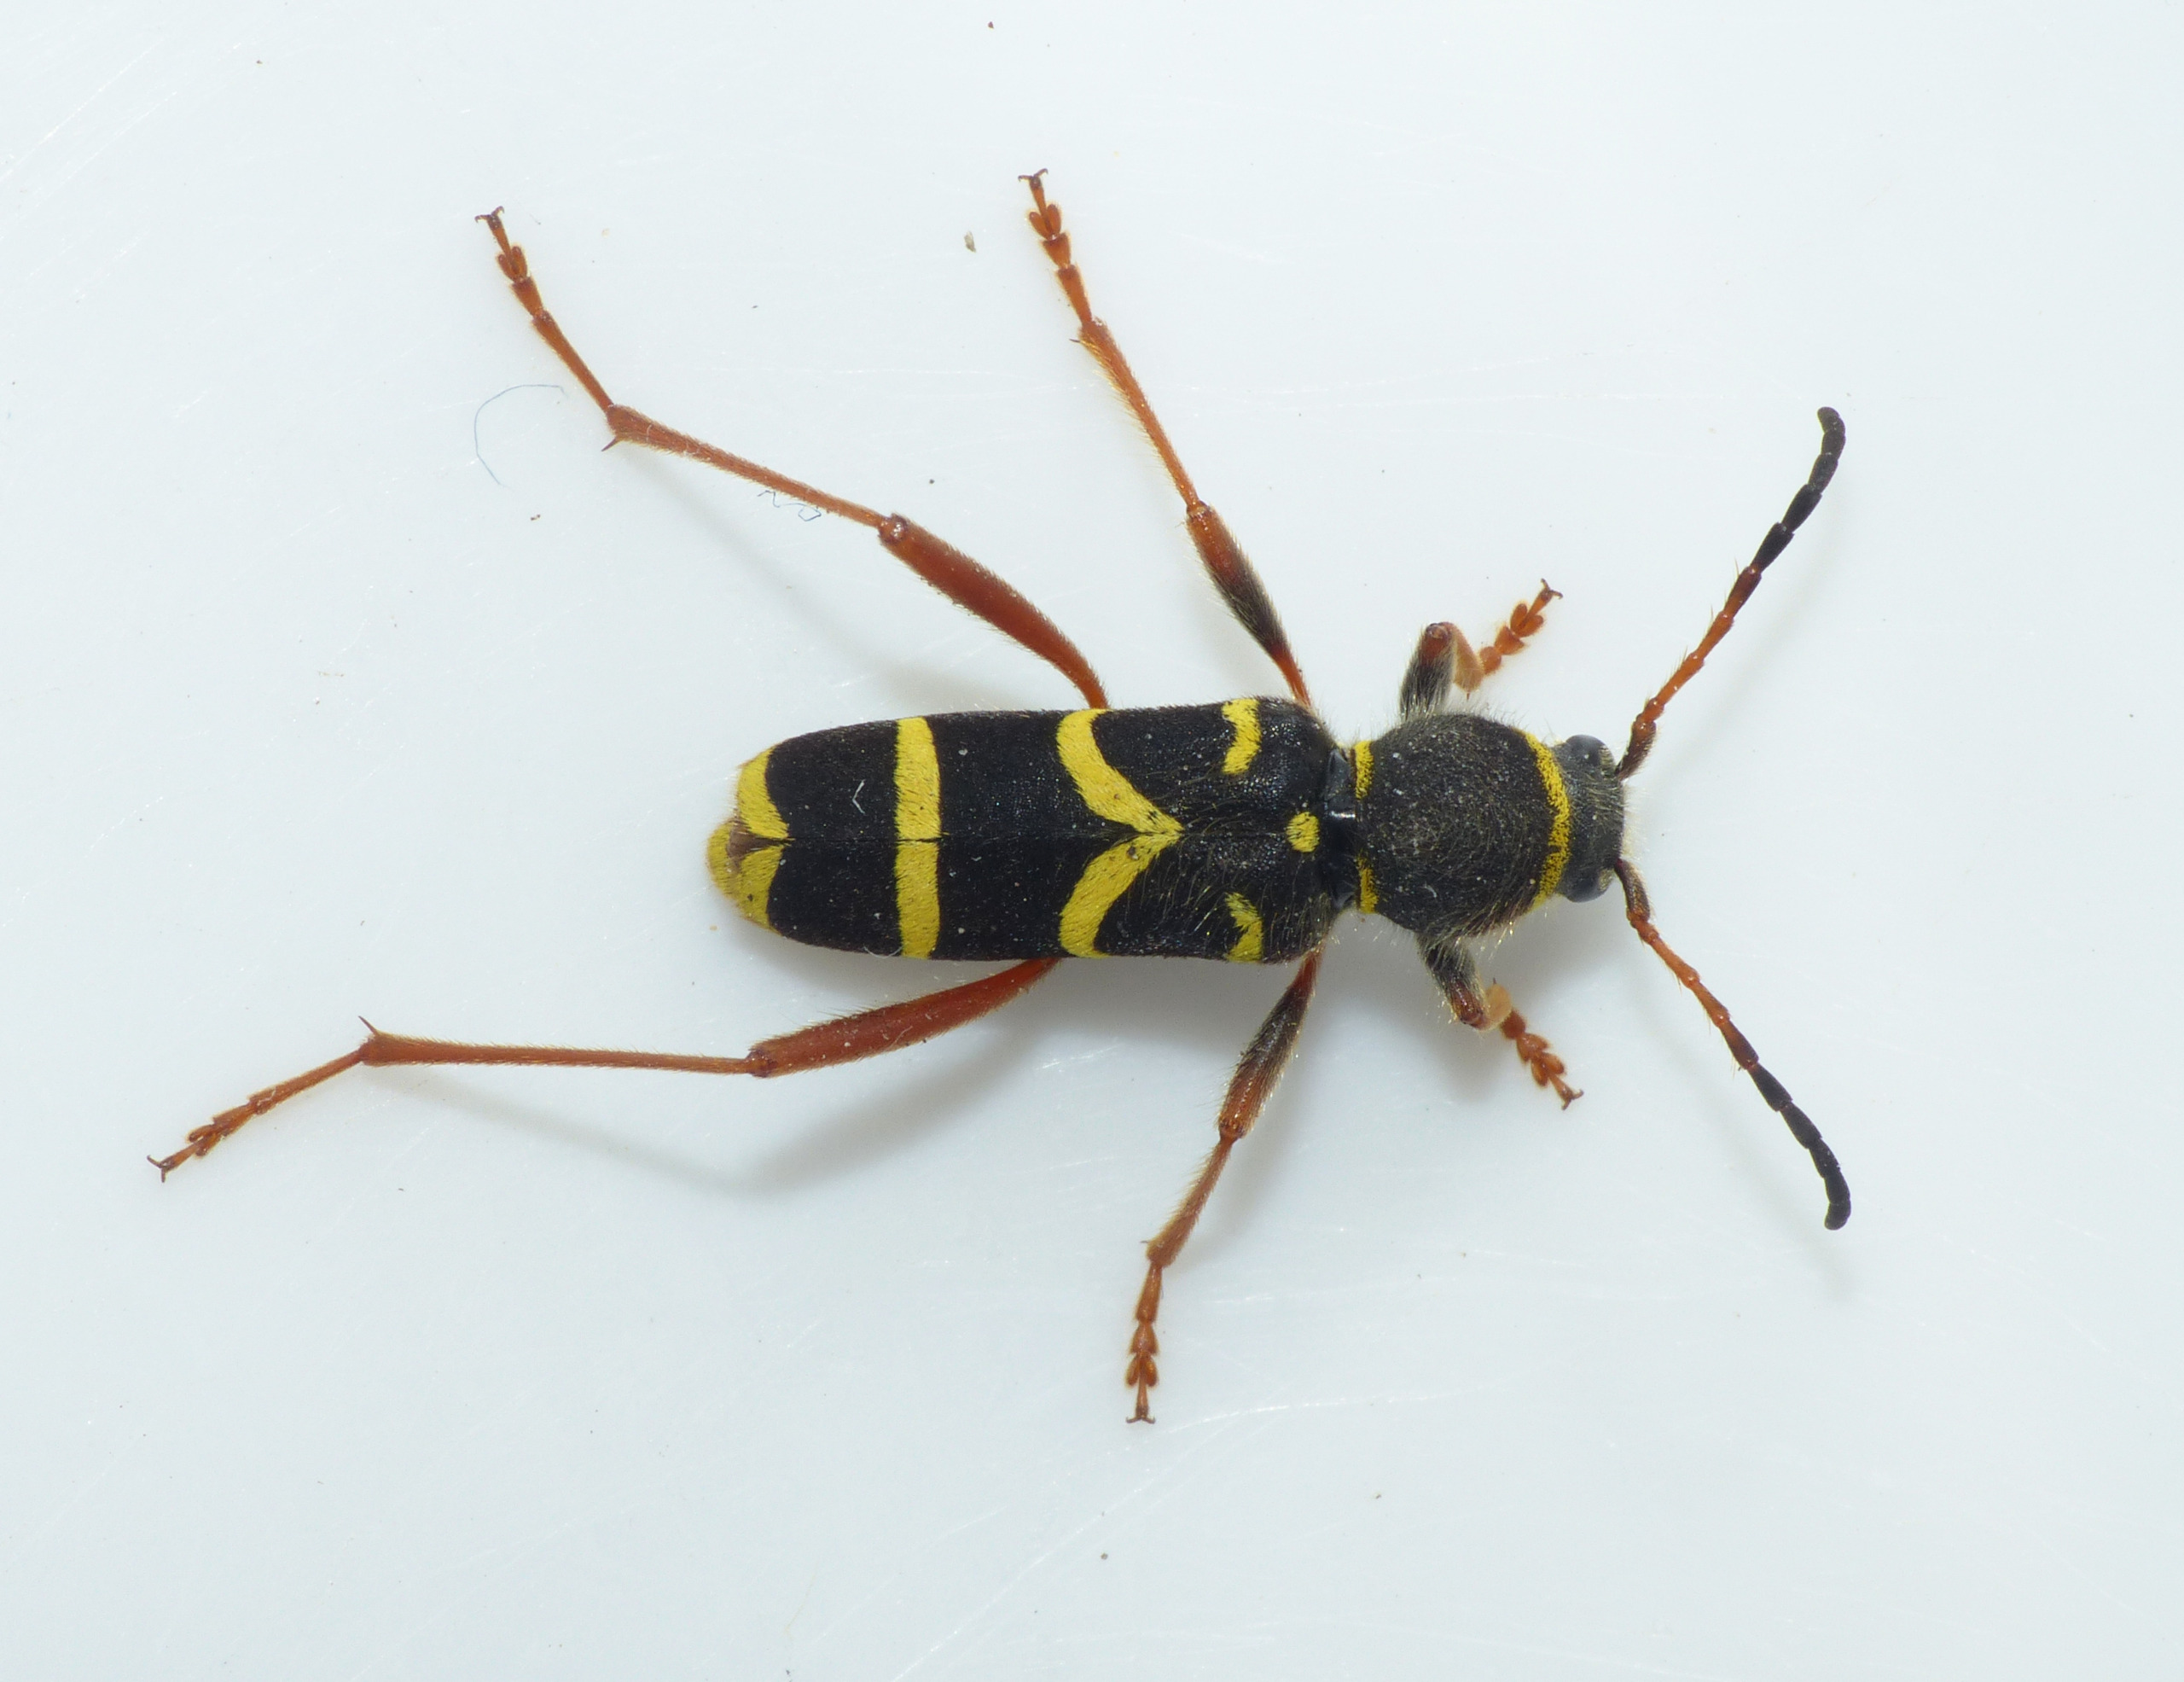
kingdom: Animalia
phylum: Arthropoda
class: Insecta
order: Coleoptera
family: Cerambycidae
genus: Clytus
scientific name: Clytus arietis
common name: Lille hvepsebuk
